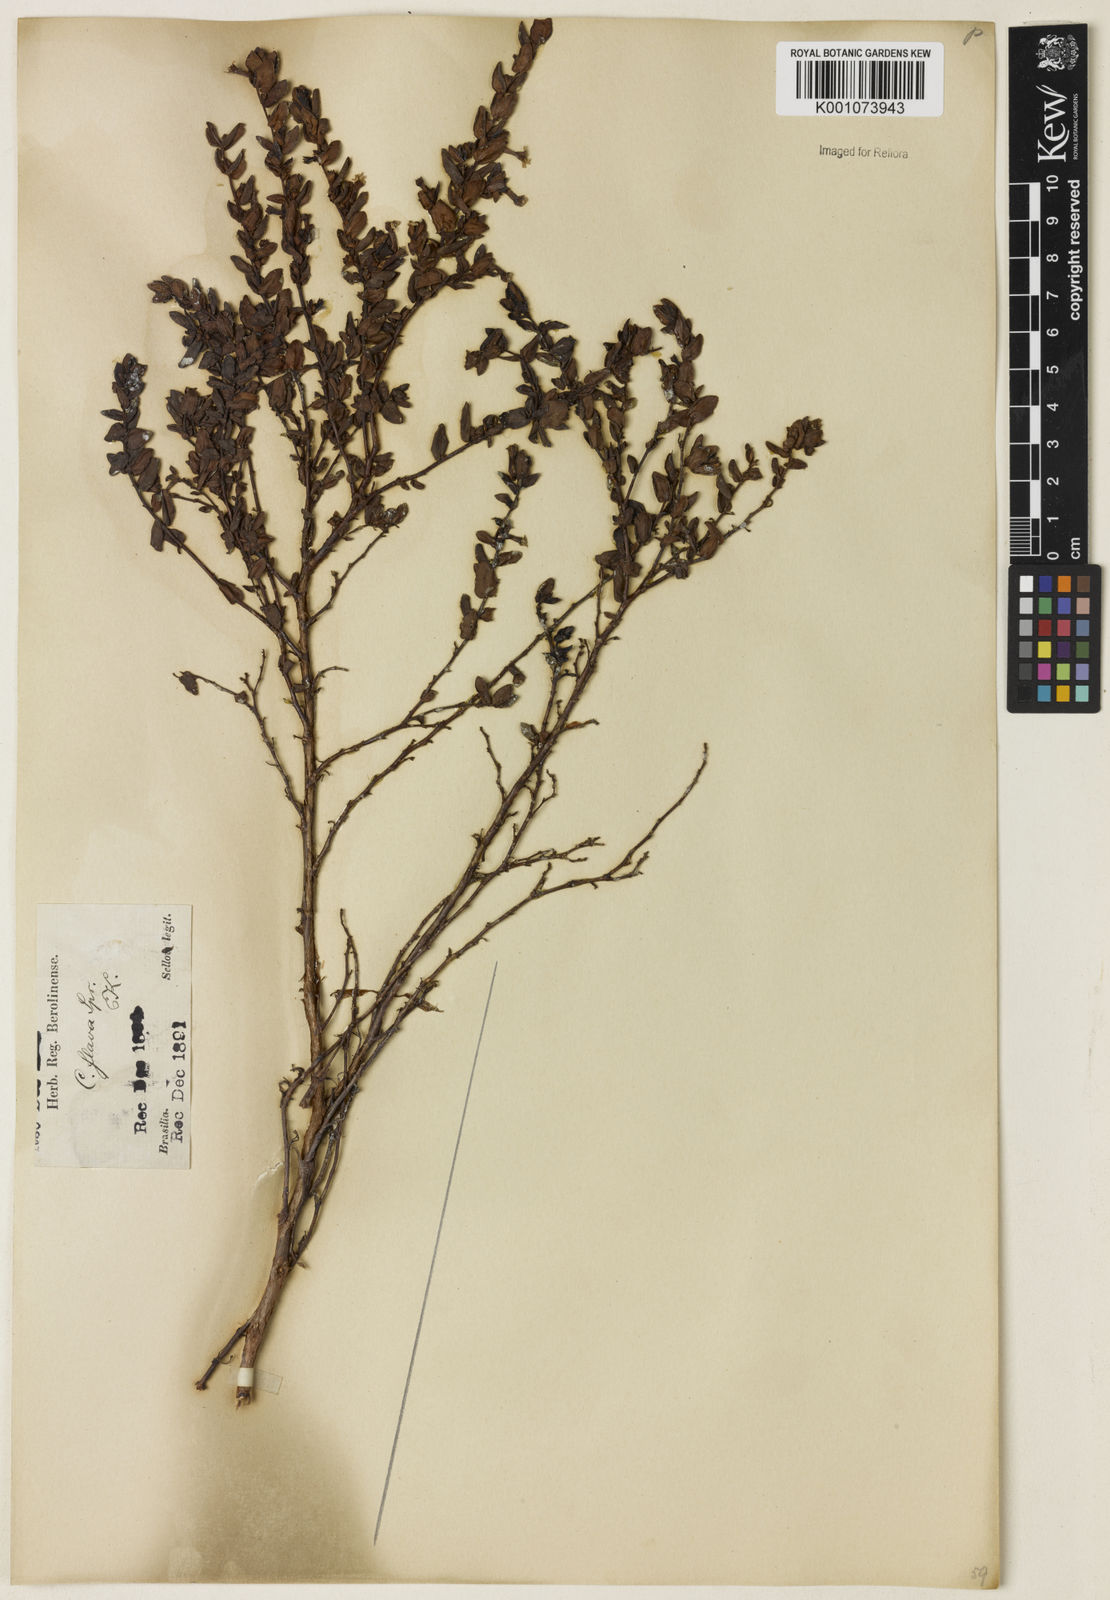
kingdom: Plantae
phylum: Tracheophyta
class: Magnoliopsida
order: Myrtales
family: Lythraceae
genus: Cuphea
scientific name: Cuphea flava
